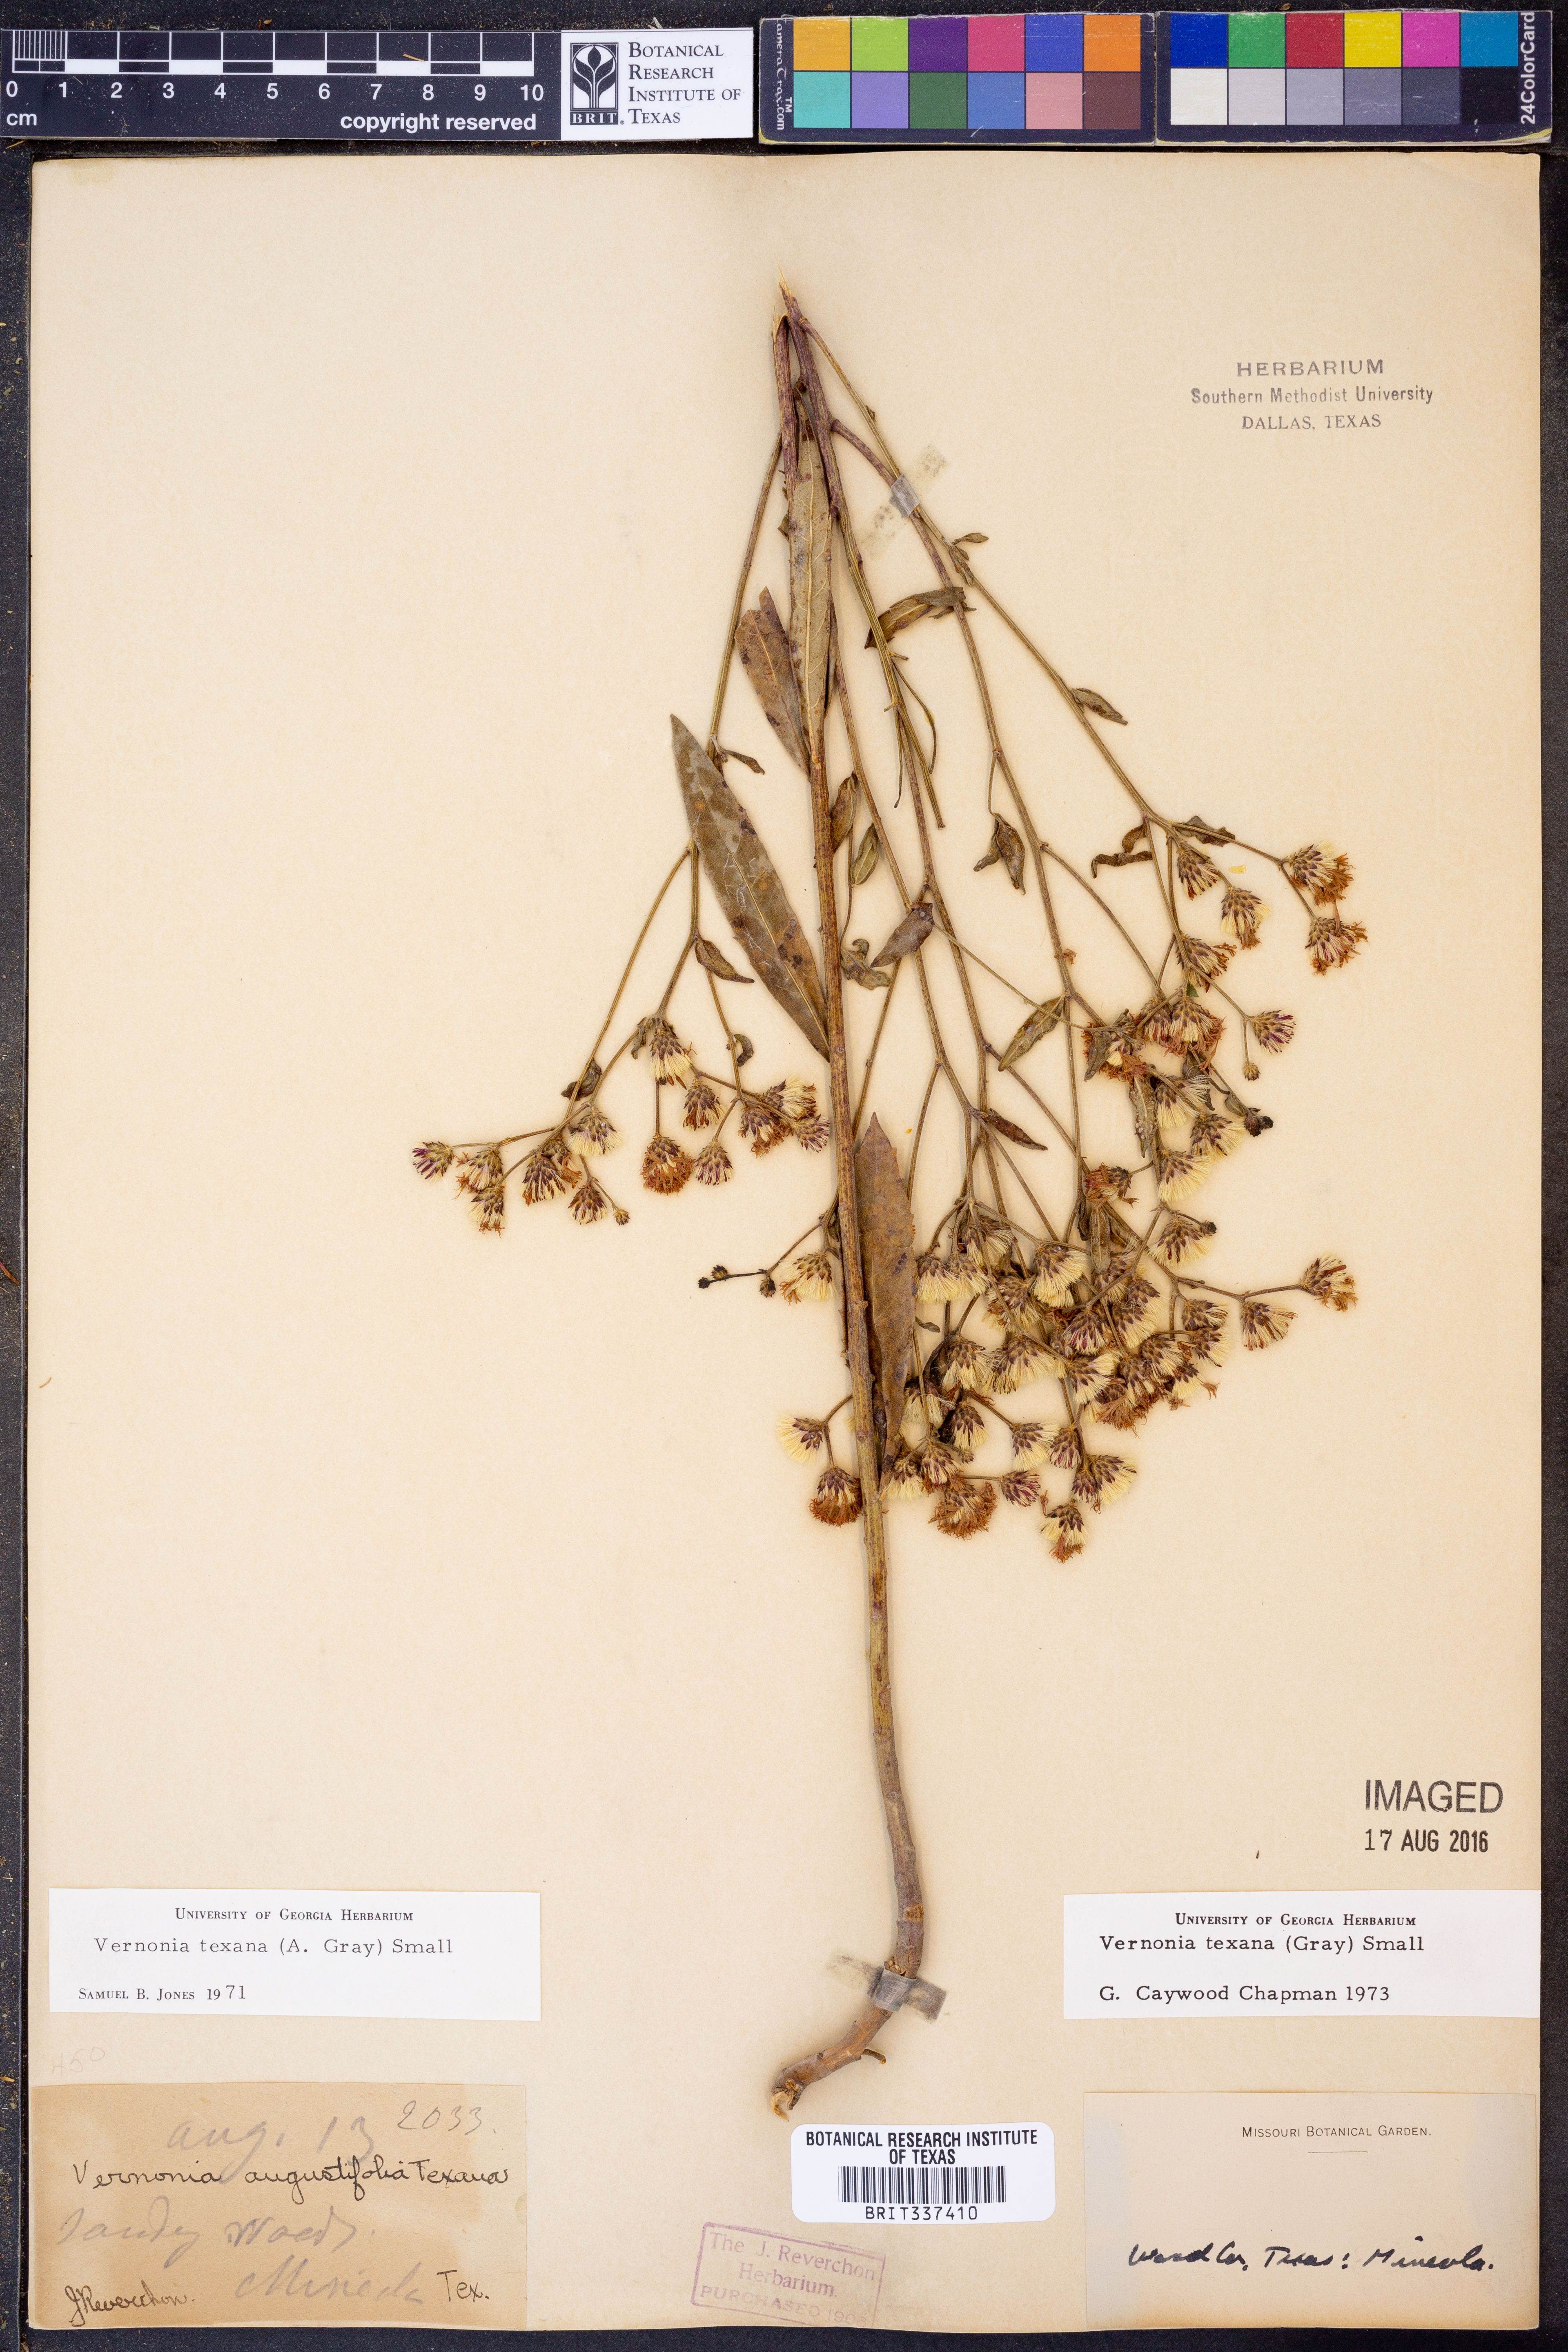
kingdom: Plantae
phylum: Tracheophyta
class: Magnoliopsida
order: Asterales
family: Asteraceae
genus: Vernonia
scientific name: Vernonia texana
